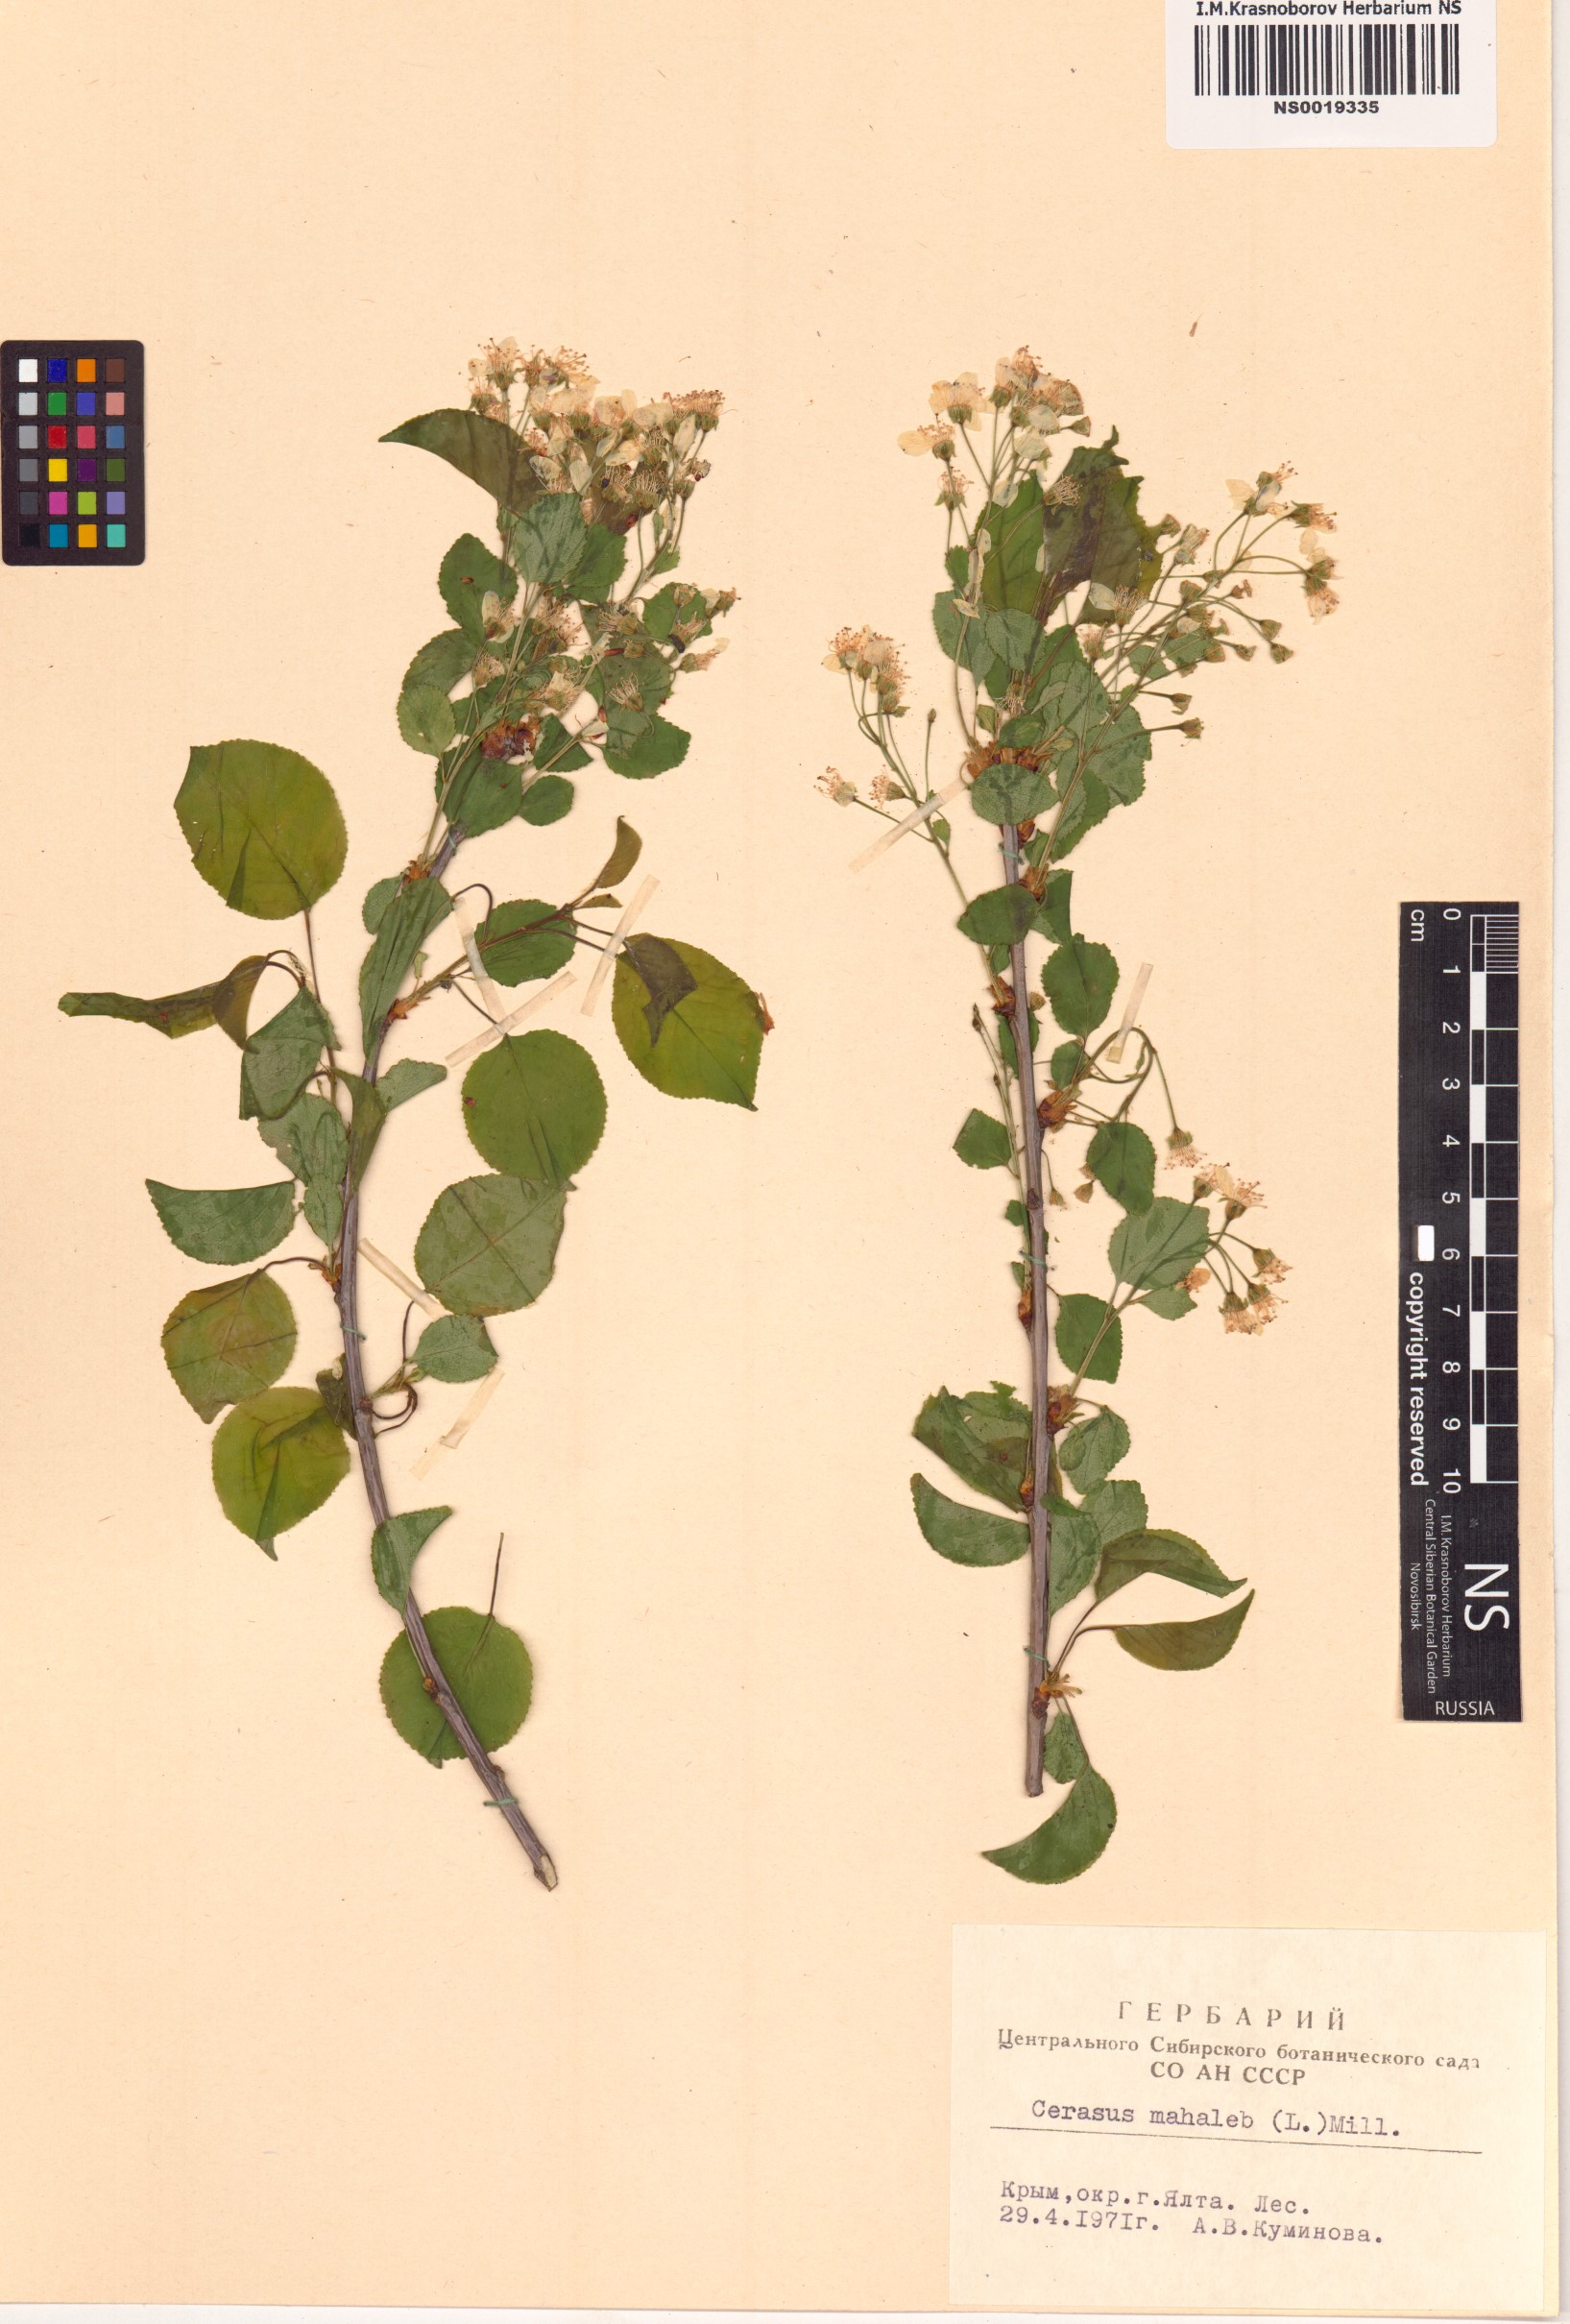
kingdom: Plantae
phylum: Tracheophyta
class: Magnoliopsida
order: Rosales
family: Rosaceae
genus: Prunus
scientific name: Prunus mahaleb
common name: Mahaleb cherry
